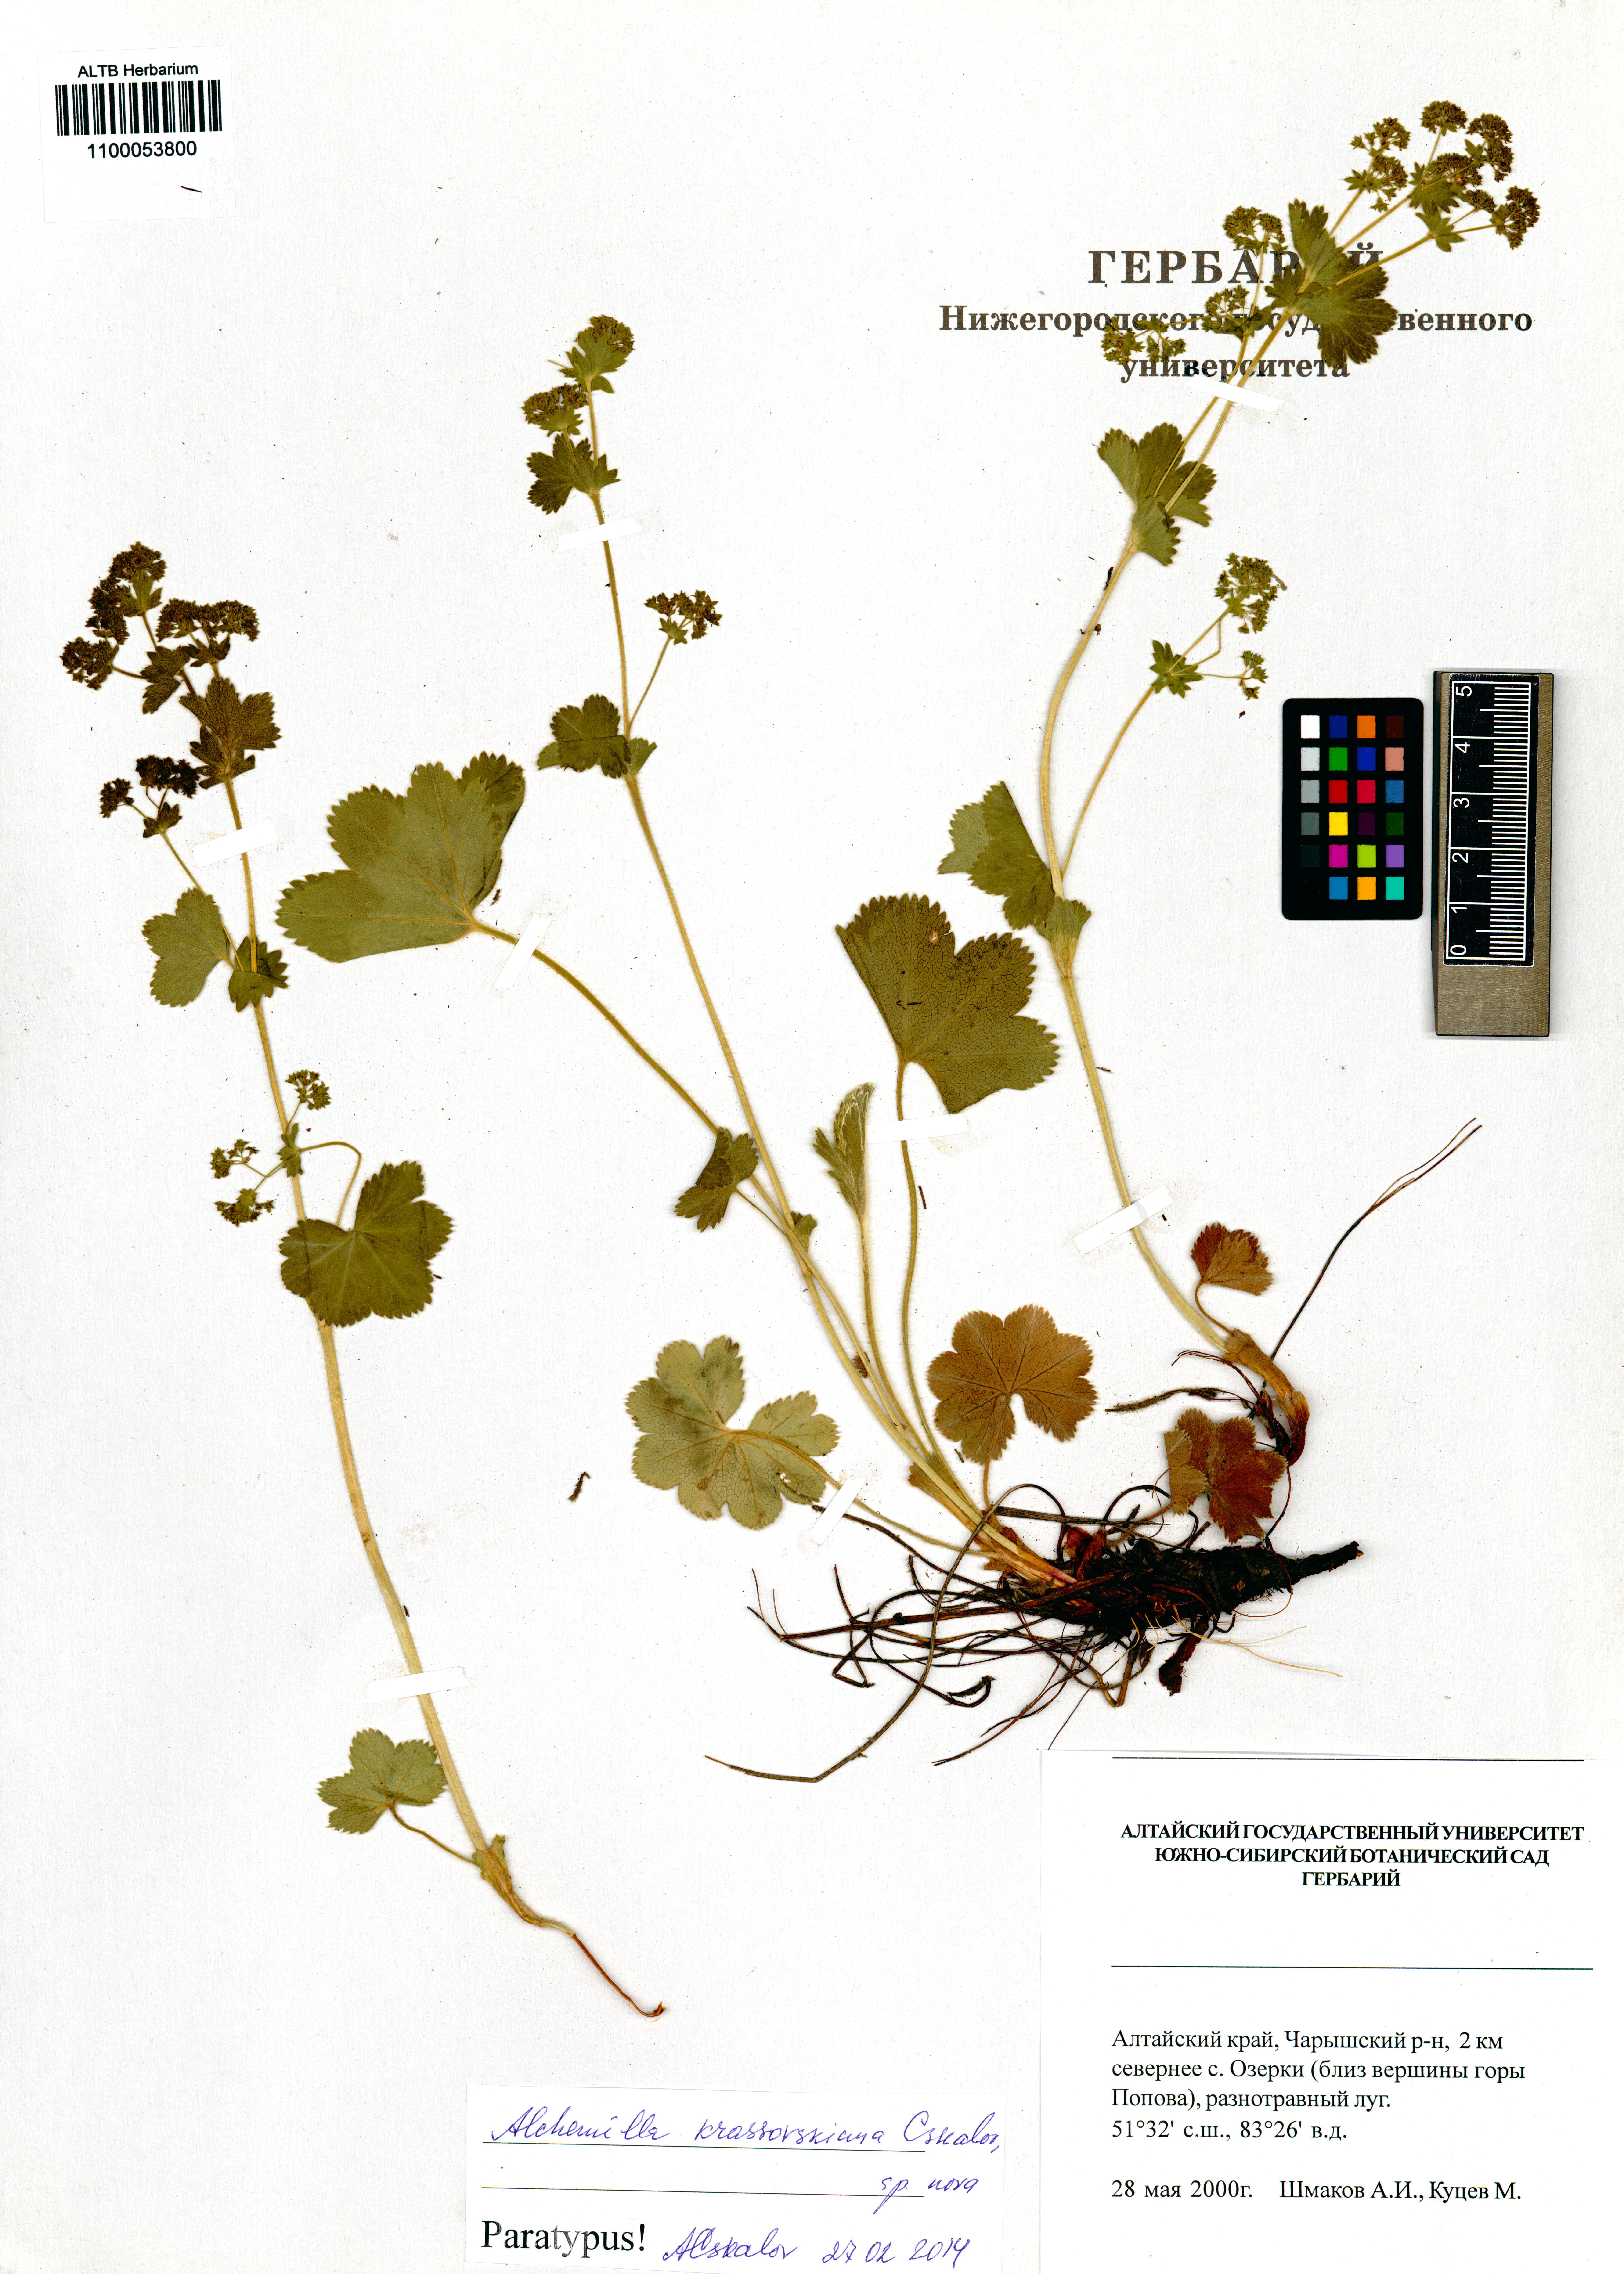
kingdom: Plantae
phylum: Tracheophyta
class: Magnoliopsida
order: Rosales
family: Rosaceae
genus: Alchemilla
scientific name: Alchemilla krassovskiana
